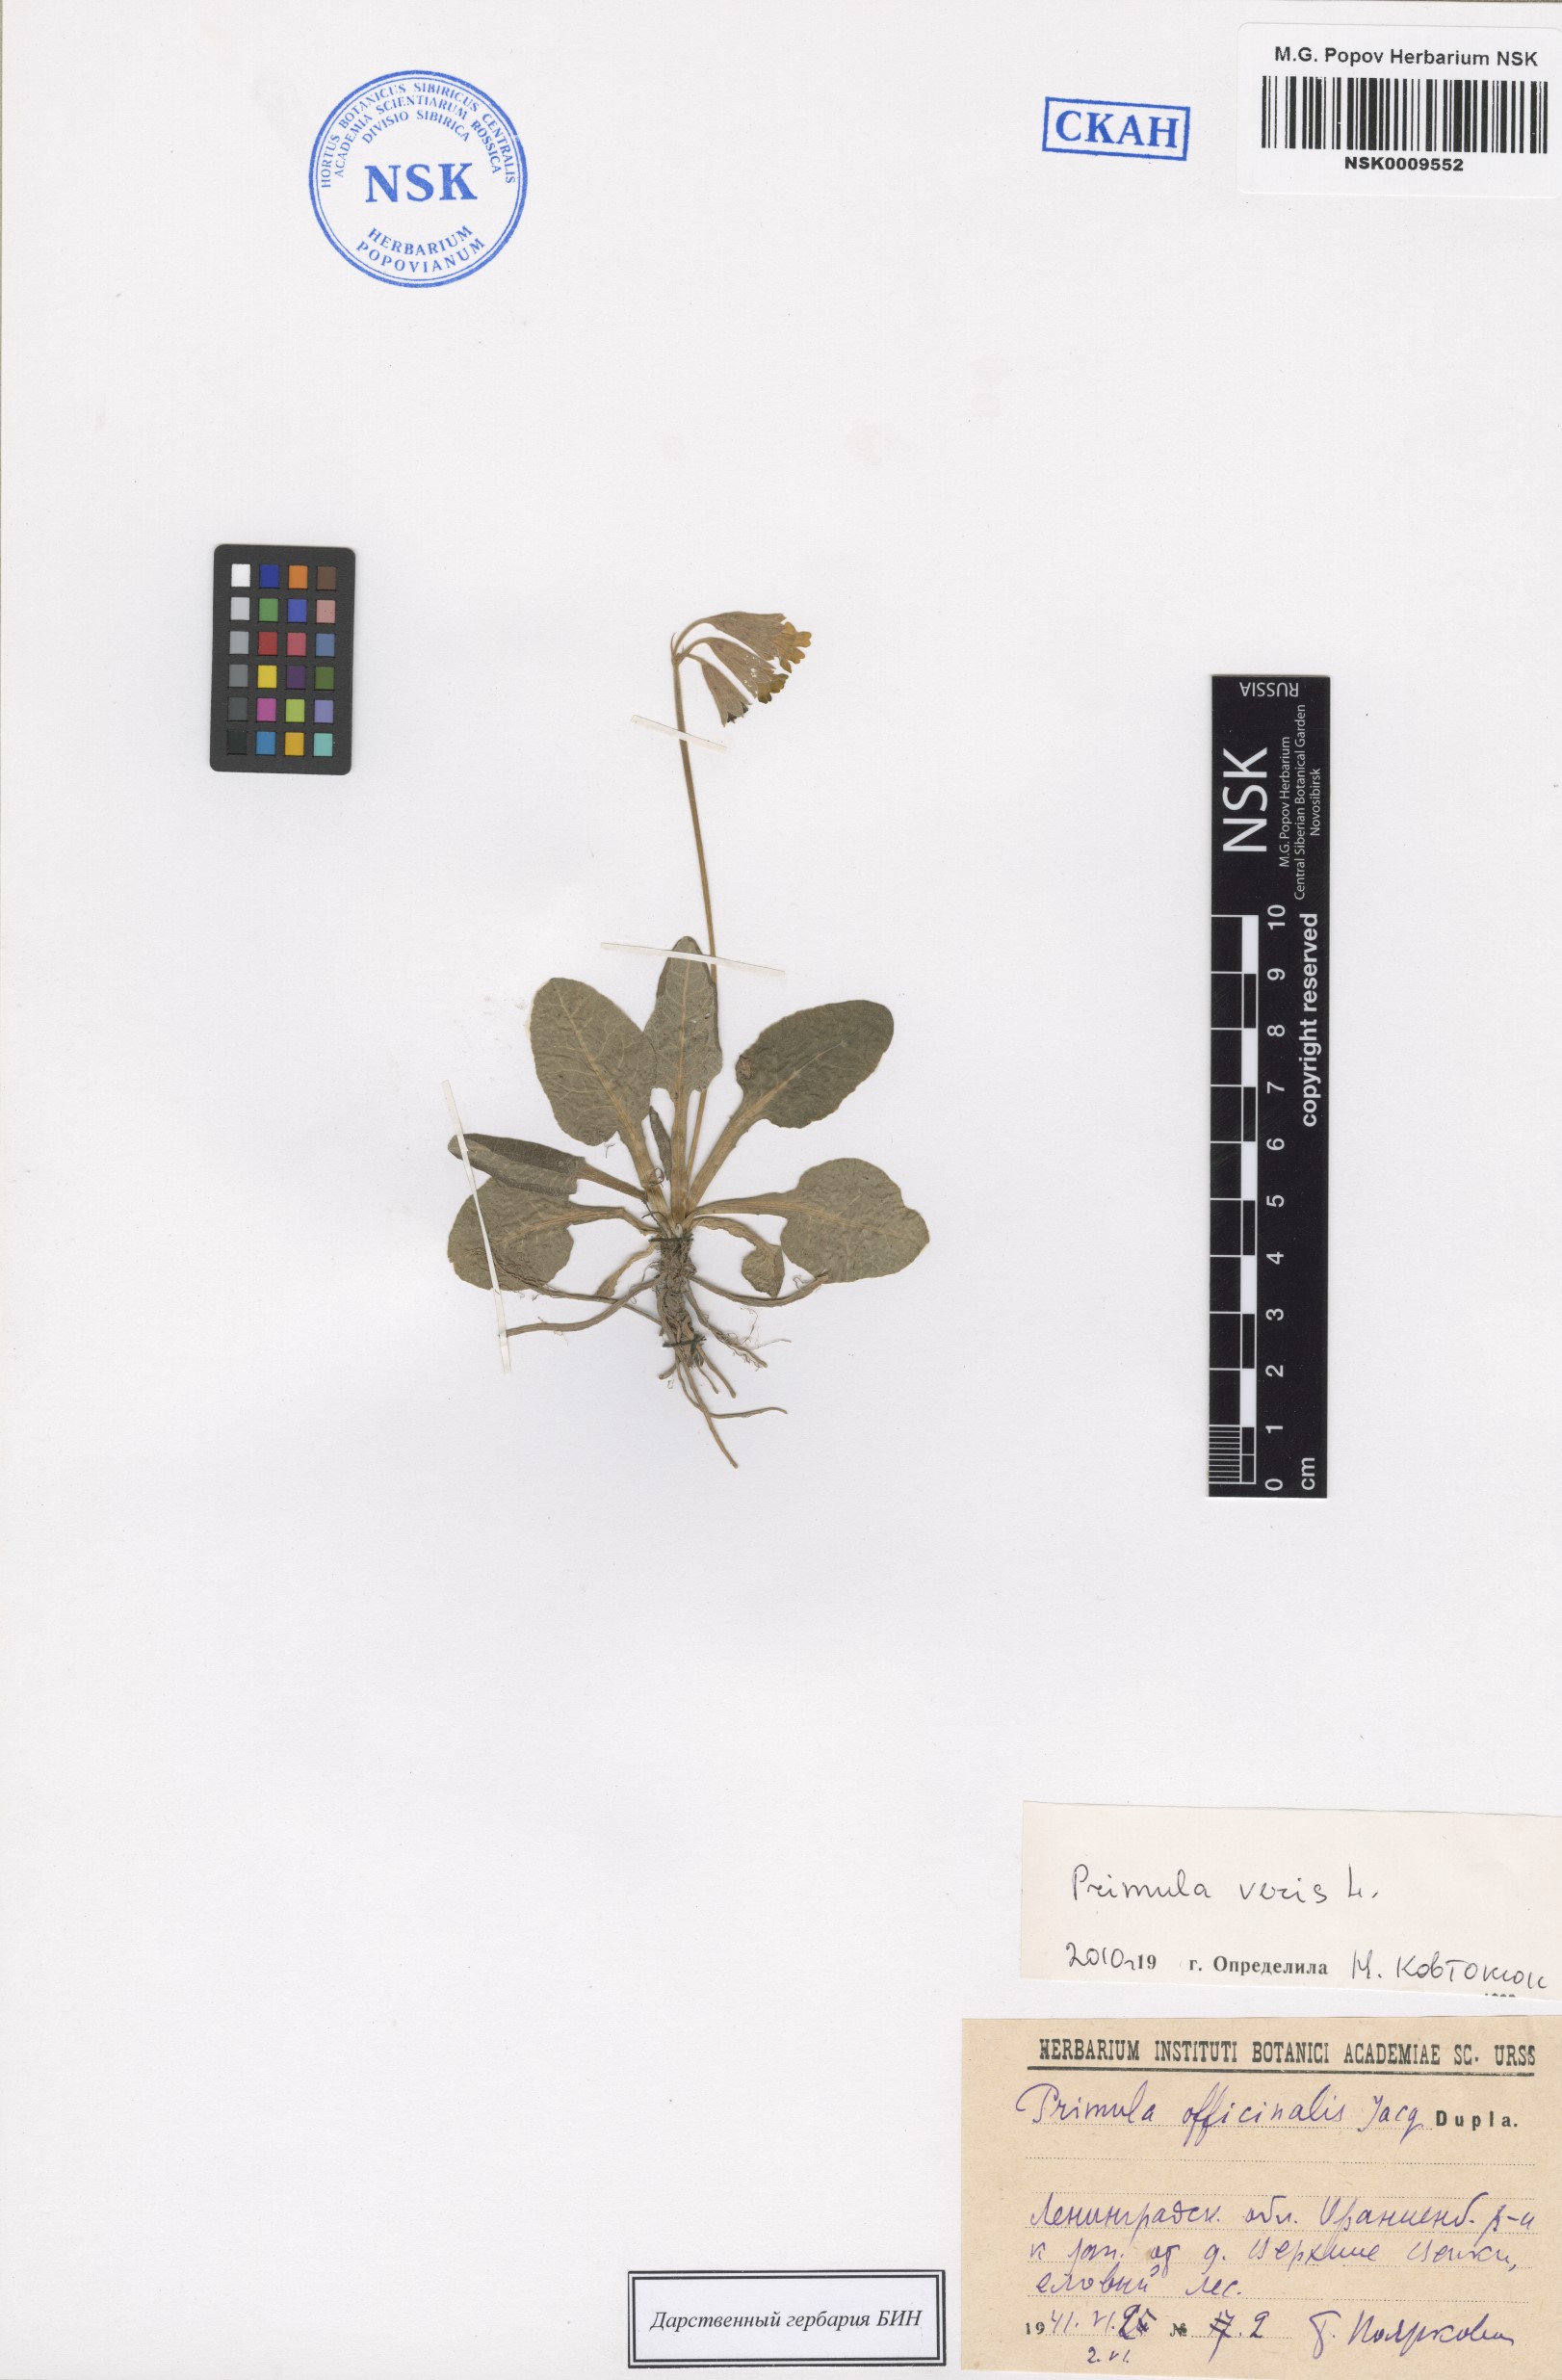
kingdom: Plantae
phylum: Tracheophyta
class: Magnoliopsida
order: Ericales
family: Primulaceae
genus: Primula
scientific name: Primula veris
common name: Cowslip
